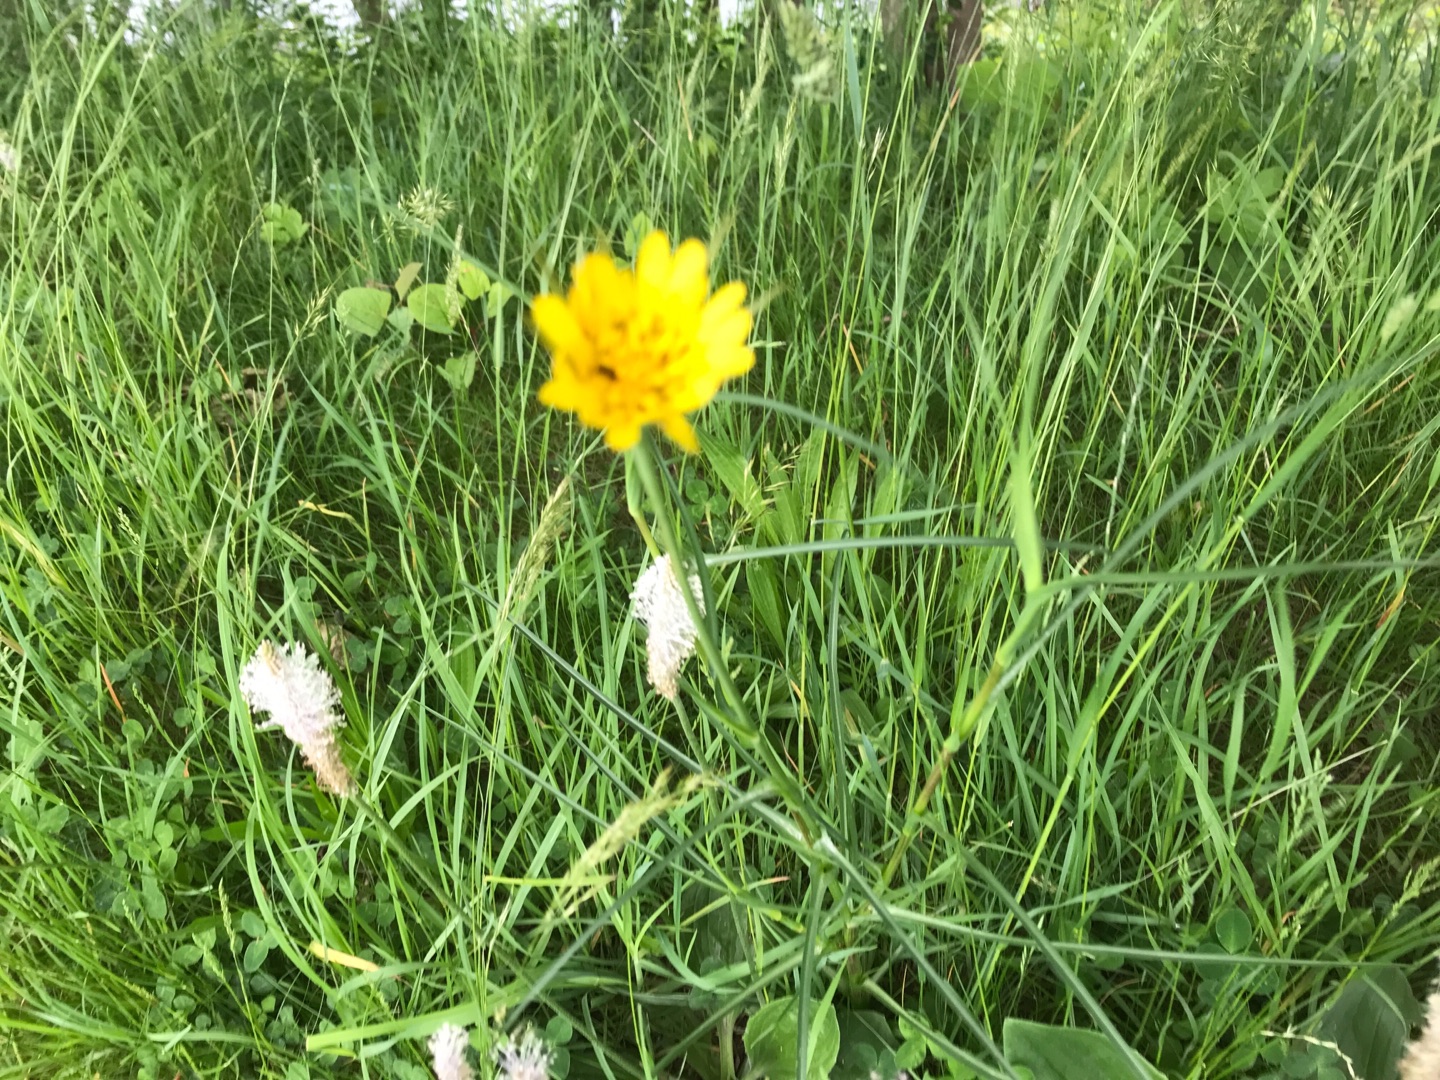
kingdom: Plantae
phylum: Tracheophyta
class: Magnoliopsida
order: Asterales
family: Asteraceae
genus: Tragopogon
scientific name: Tragopogon pratensis
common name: Gedeskæg
